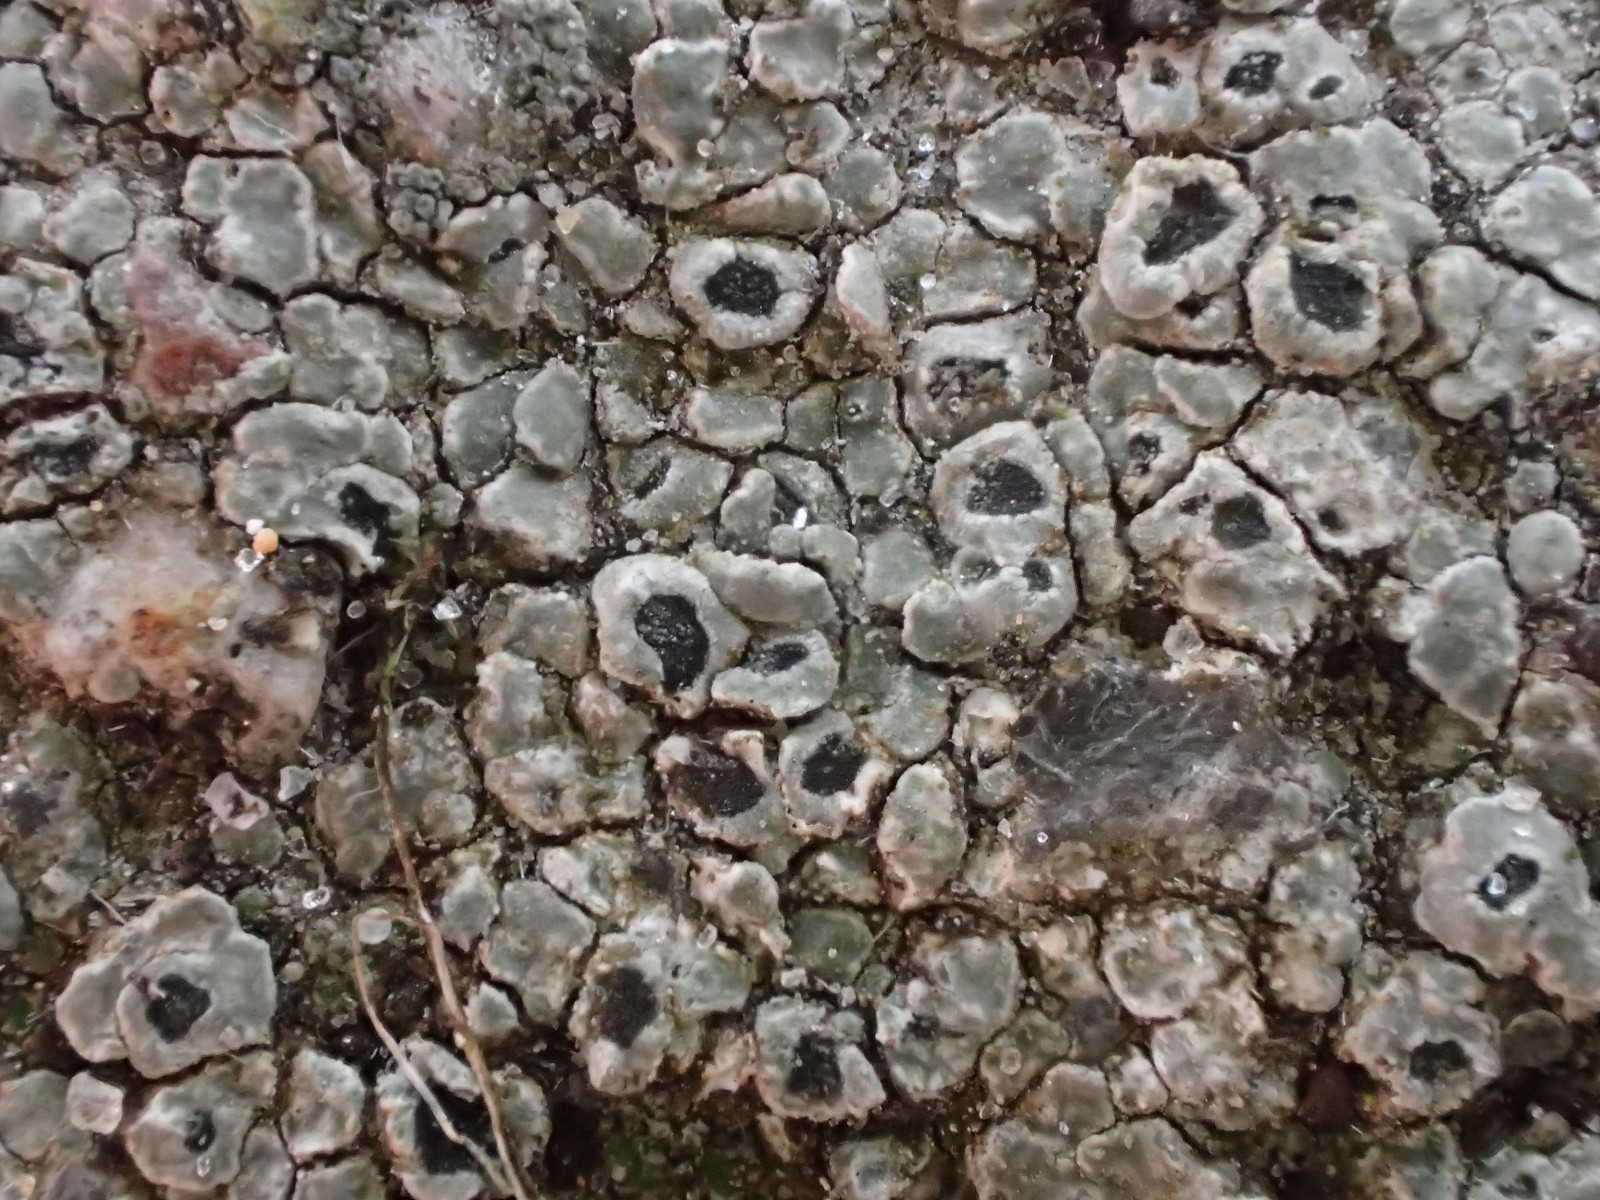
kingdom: Fungi
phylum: Ascomycota
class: Lecanoromycetes
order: Pertusariales
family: Megasporaceae
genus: Circinaria
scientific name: Circinaria contorta
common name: indviklet hulskivelav
